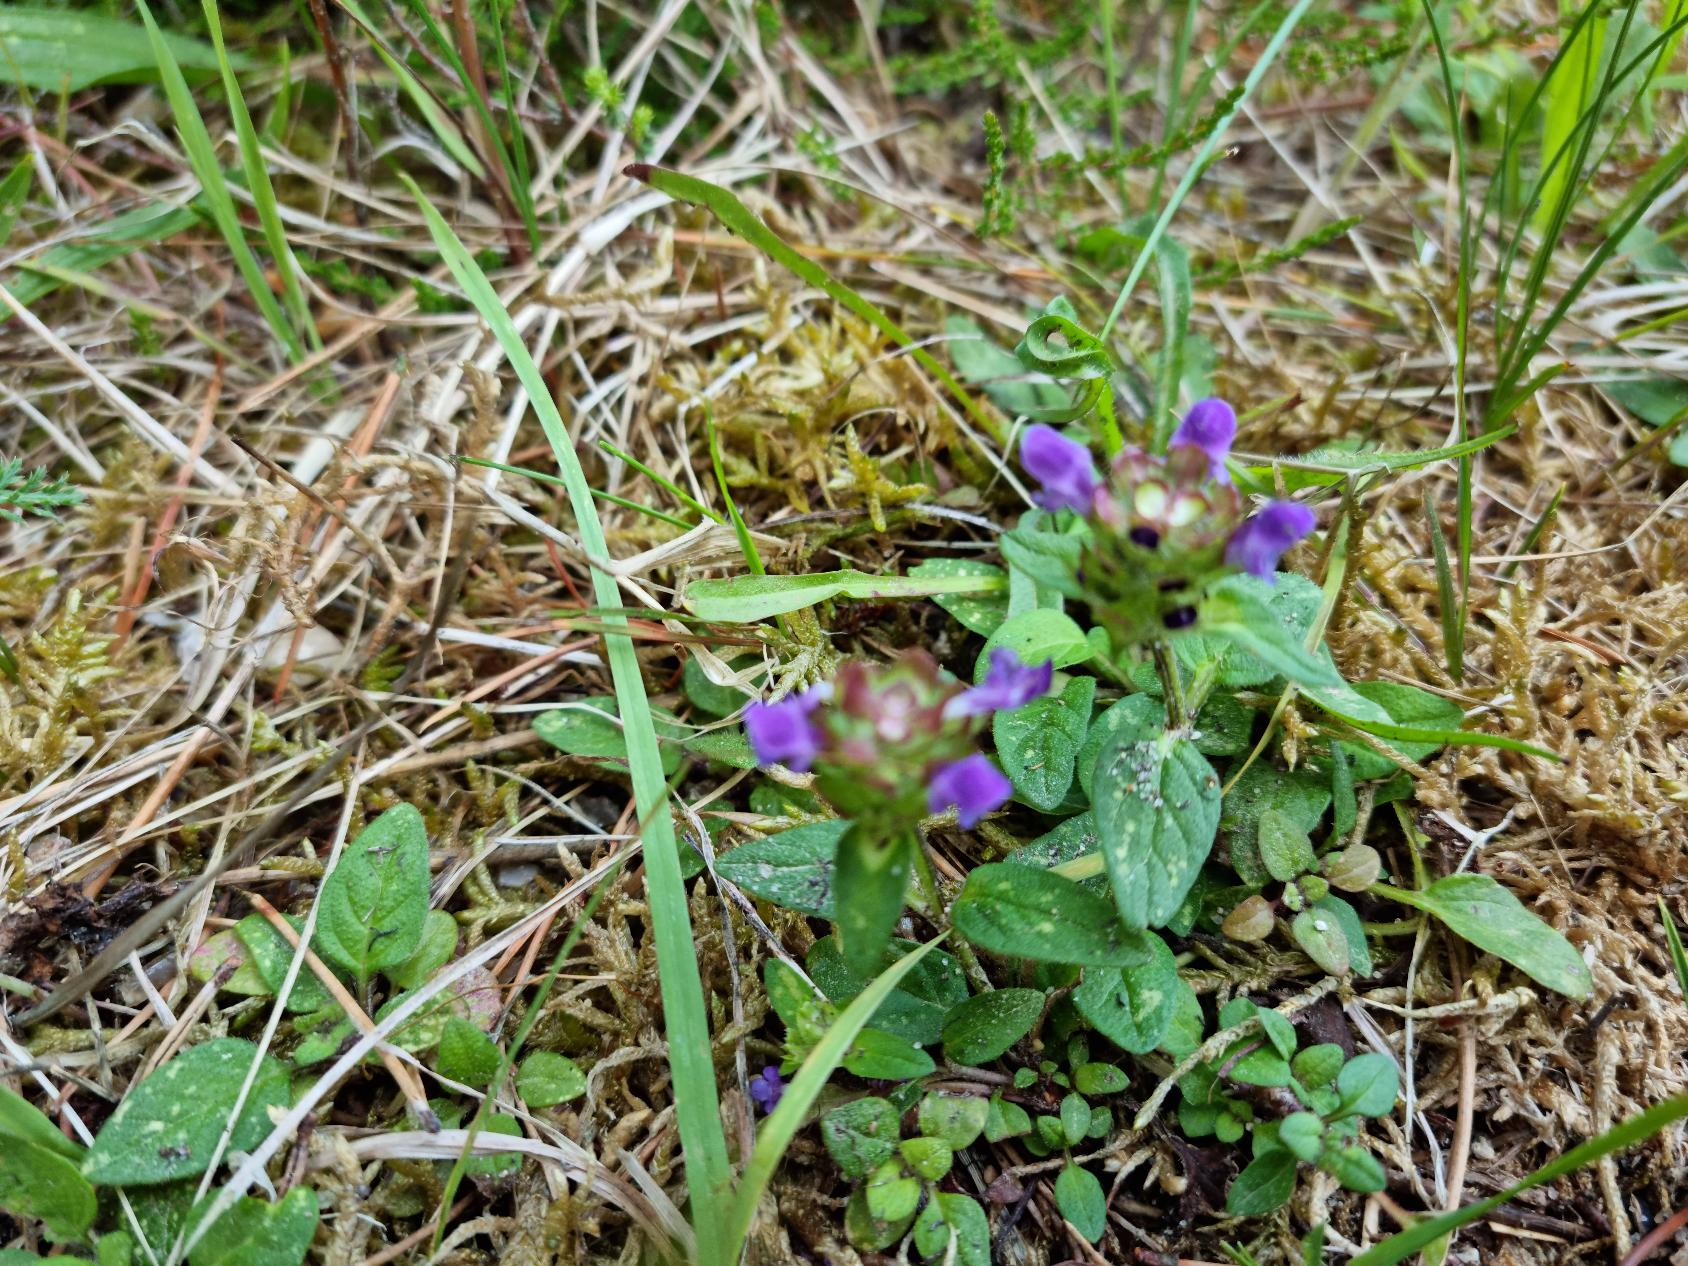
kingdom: Plantae
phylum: Tracheophyta
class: Magnoliopsida
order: Lamiales
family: Lamiaceae
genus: Prunella
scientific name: Prunella vulgaris
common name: Almindelig brunelle
